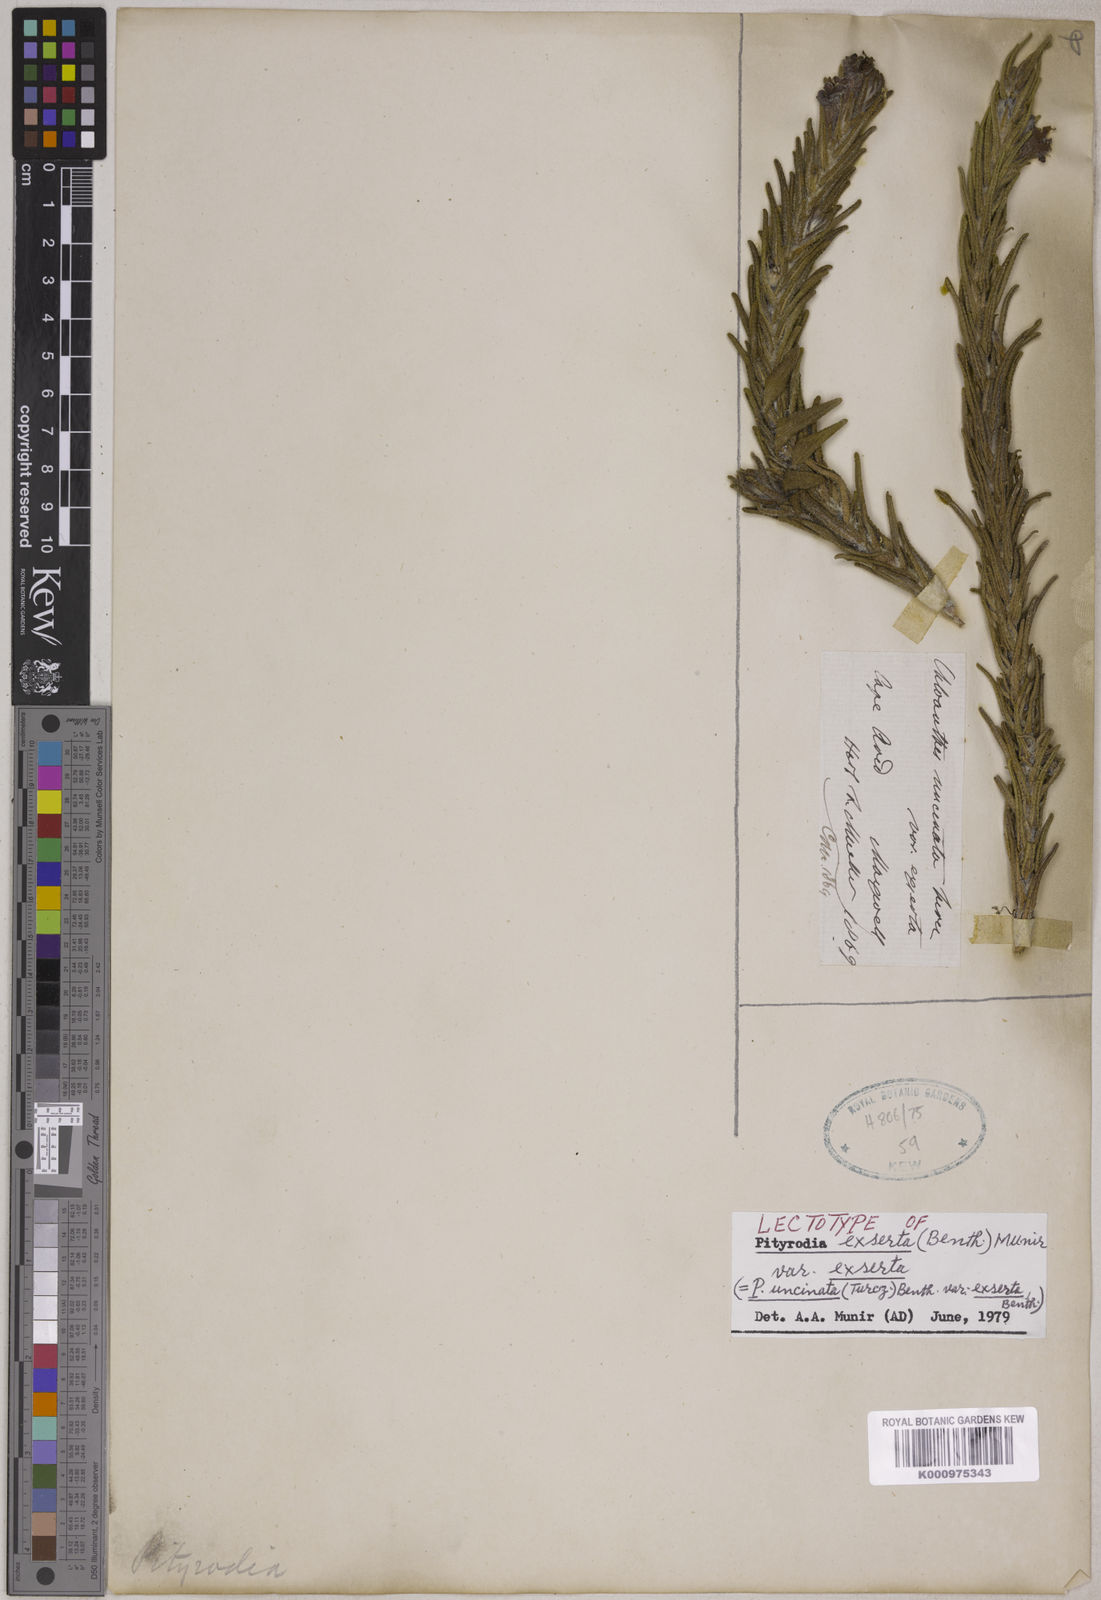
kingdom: Plantae
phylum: Tracheophyta
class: Magnoliopsida
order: Lamiales
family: Lamiaceae
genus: Hemiphora
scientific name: Hemiphora exserta
